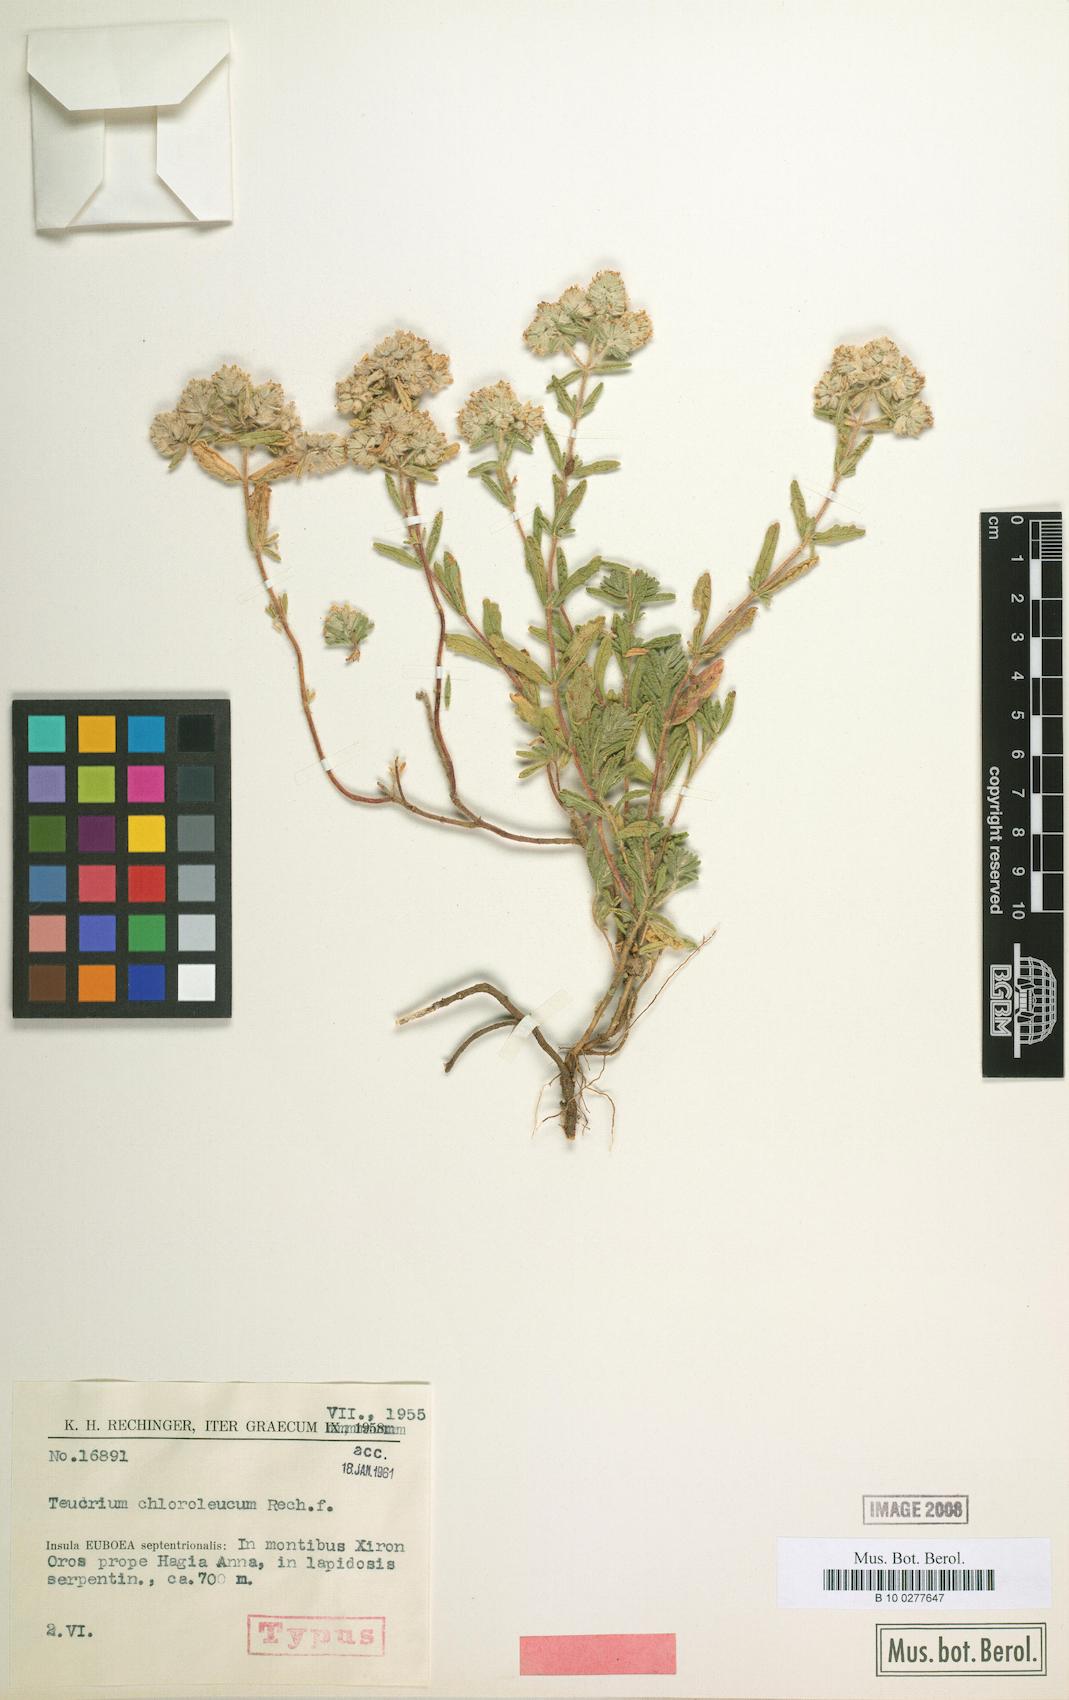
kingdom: Plantae
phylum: Tracheophyta
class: Magnoliopsida
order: Lamiales
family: Lamiaceae
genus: Teucrium
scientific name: Teucrium chloroleucum
